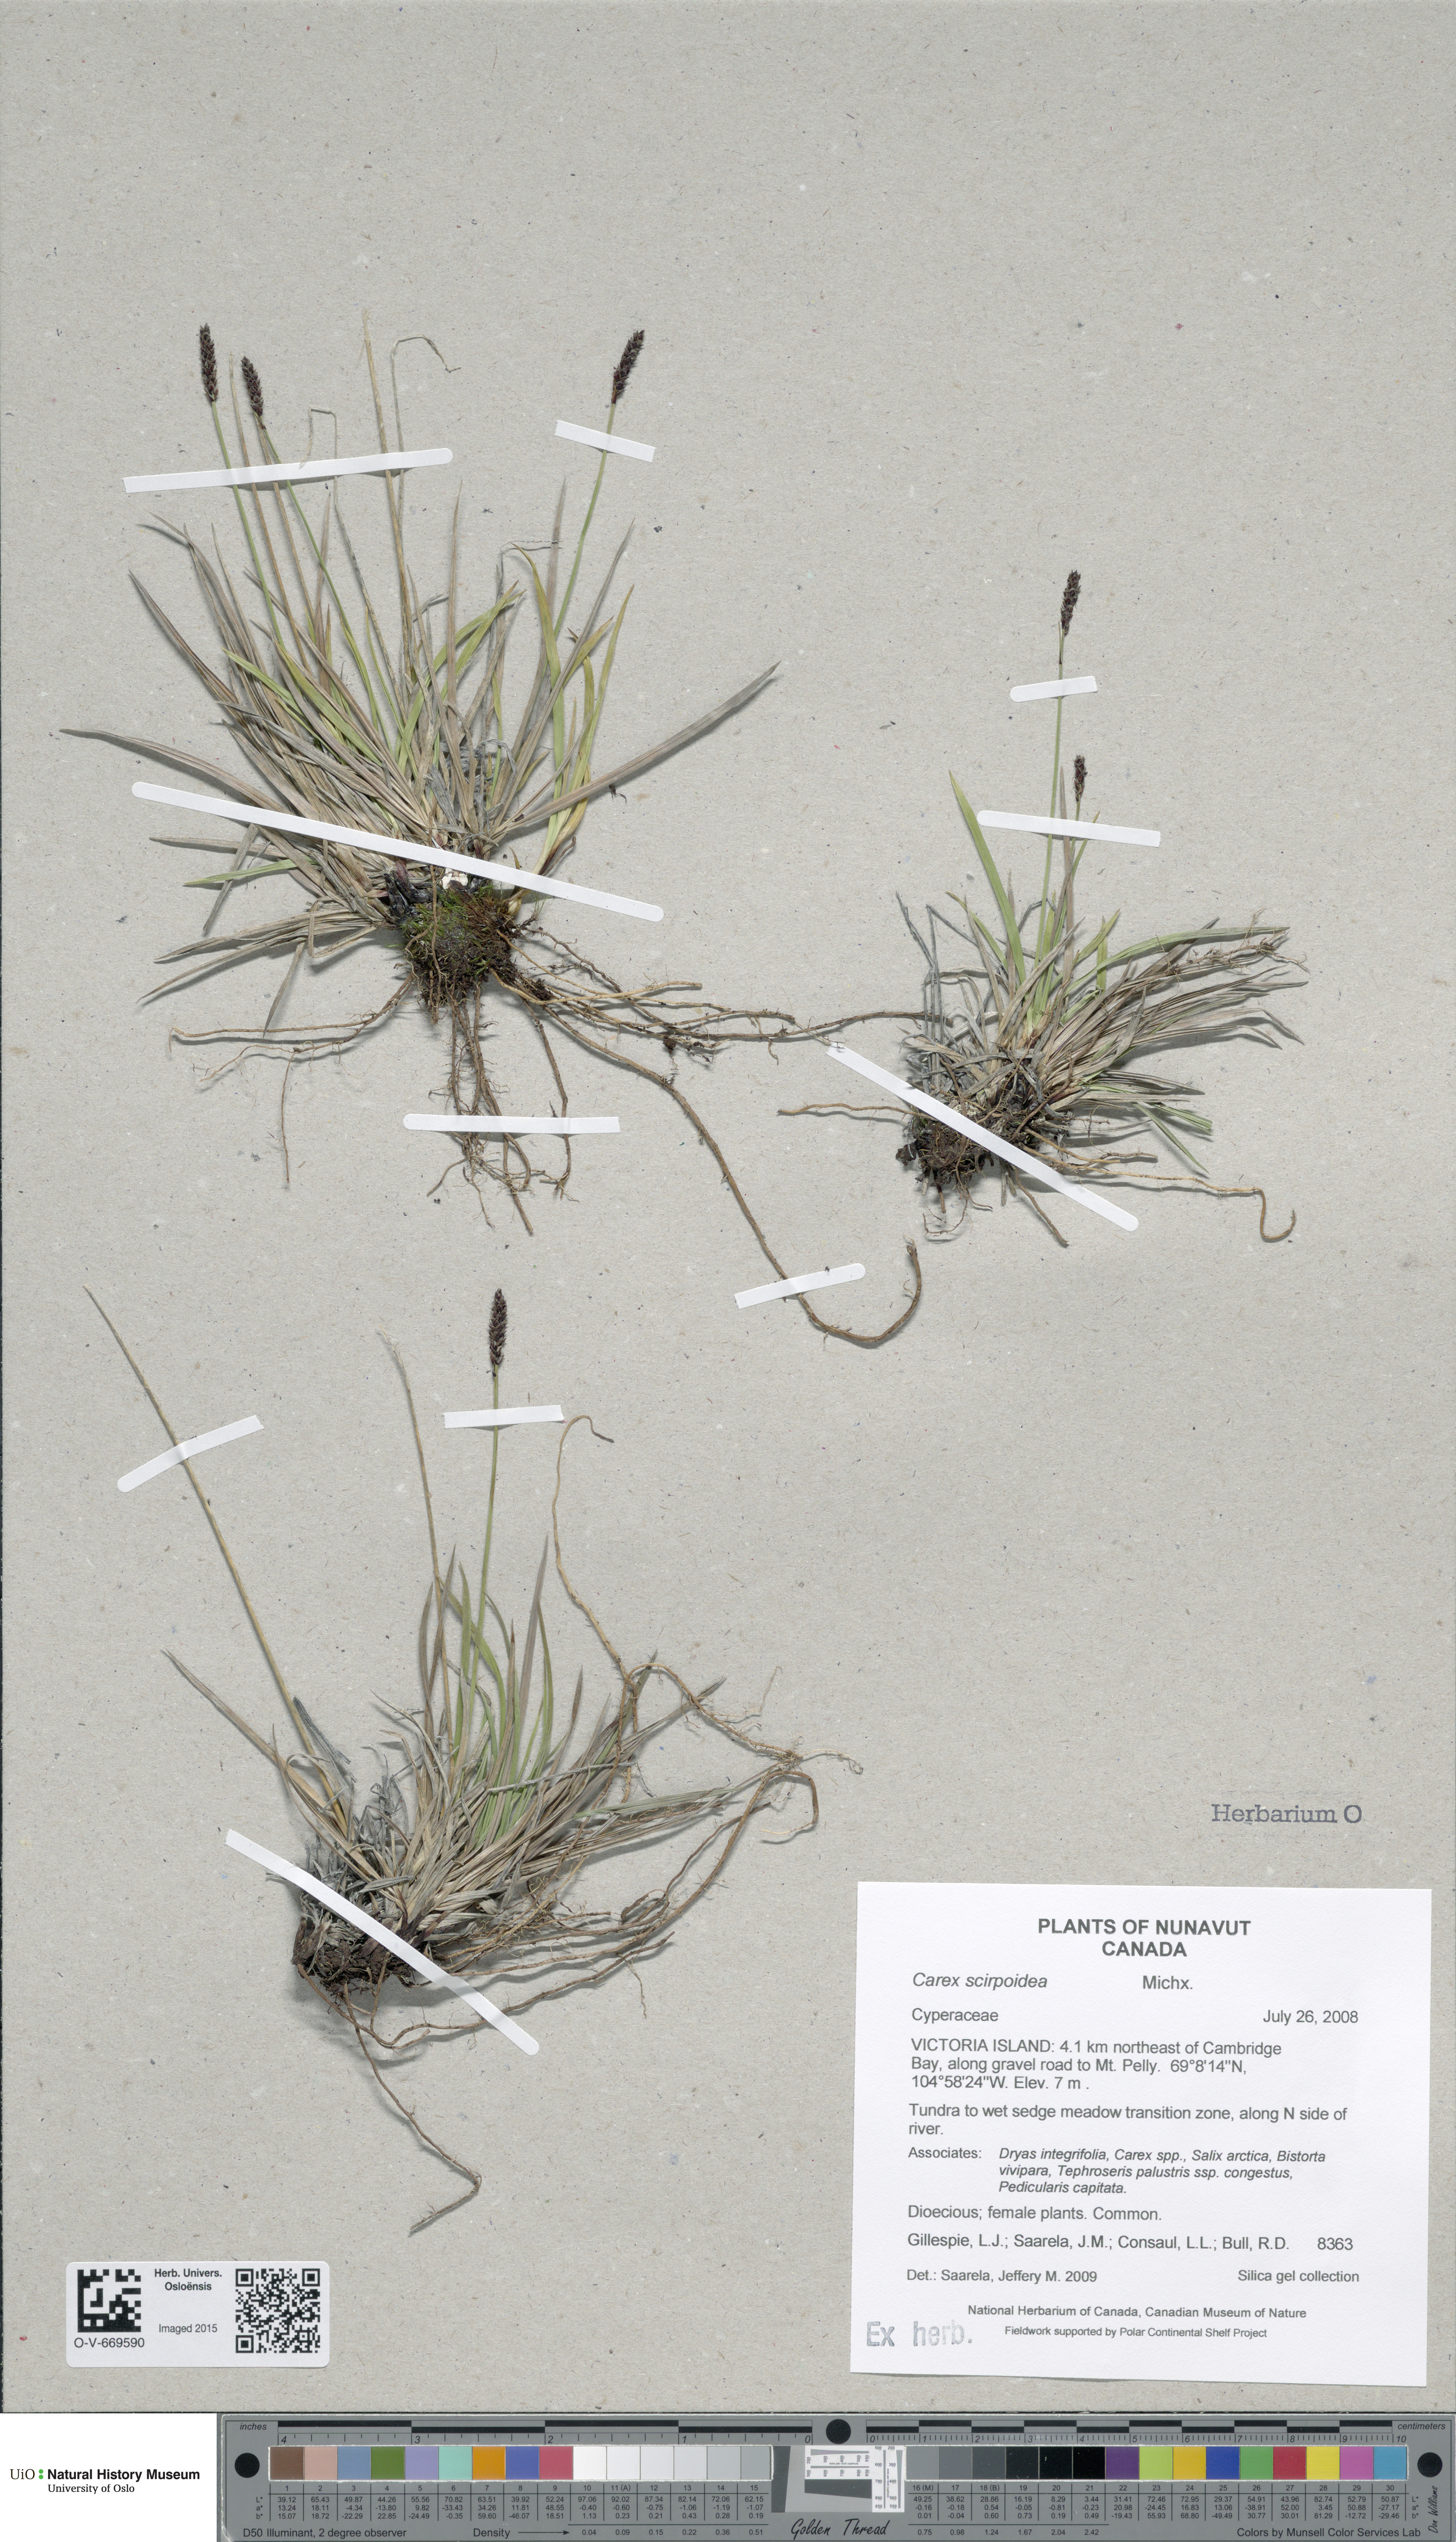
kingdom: Plantae
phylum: Tracheophyta
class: Liliopsida
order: Poales
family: Cyperaceae
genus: Carex
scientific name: Carex scirpoidea
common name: Canada single-spike sedge
